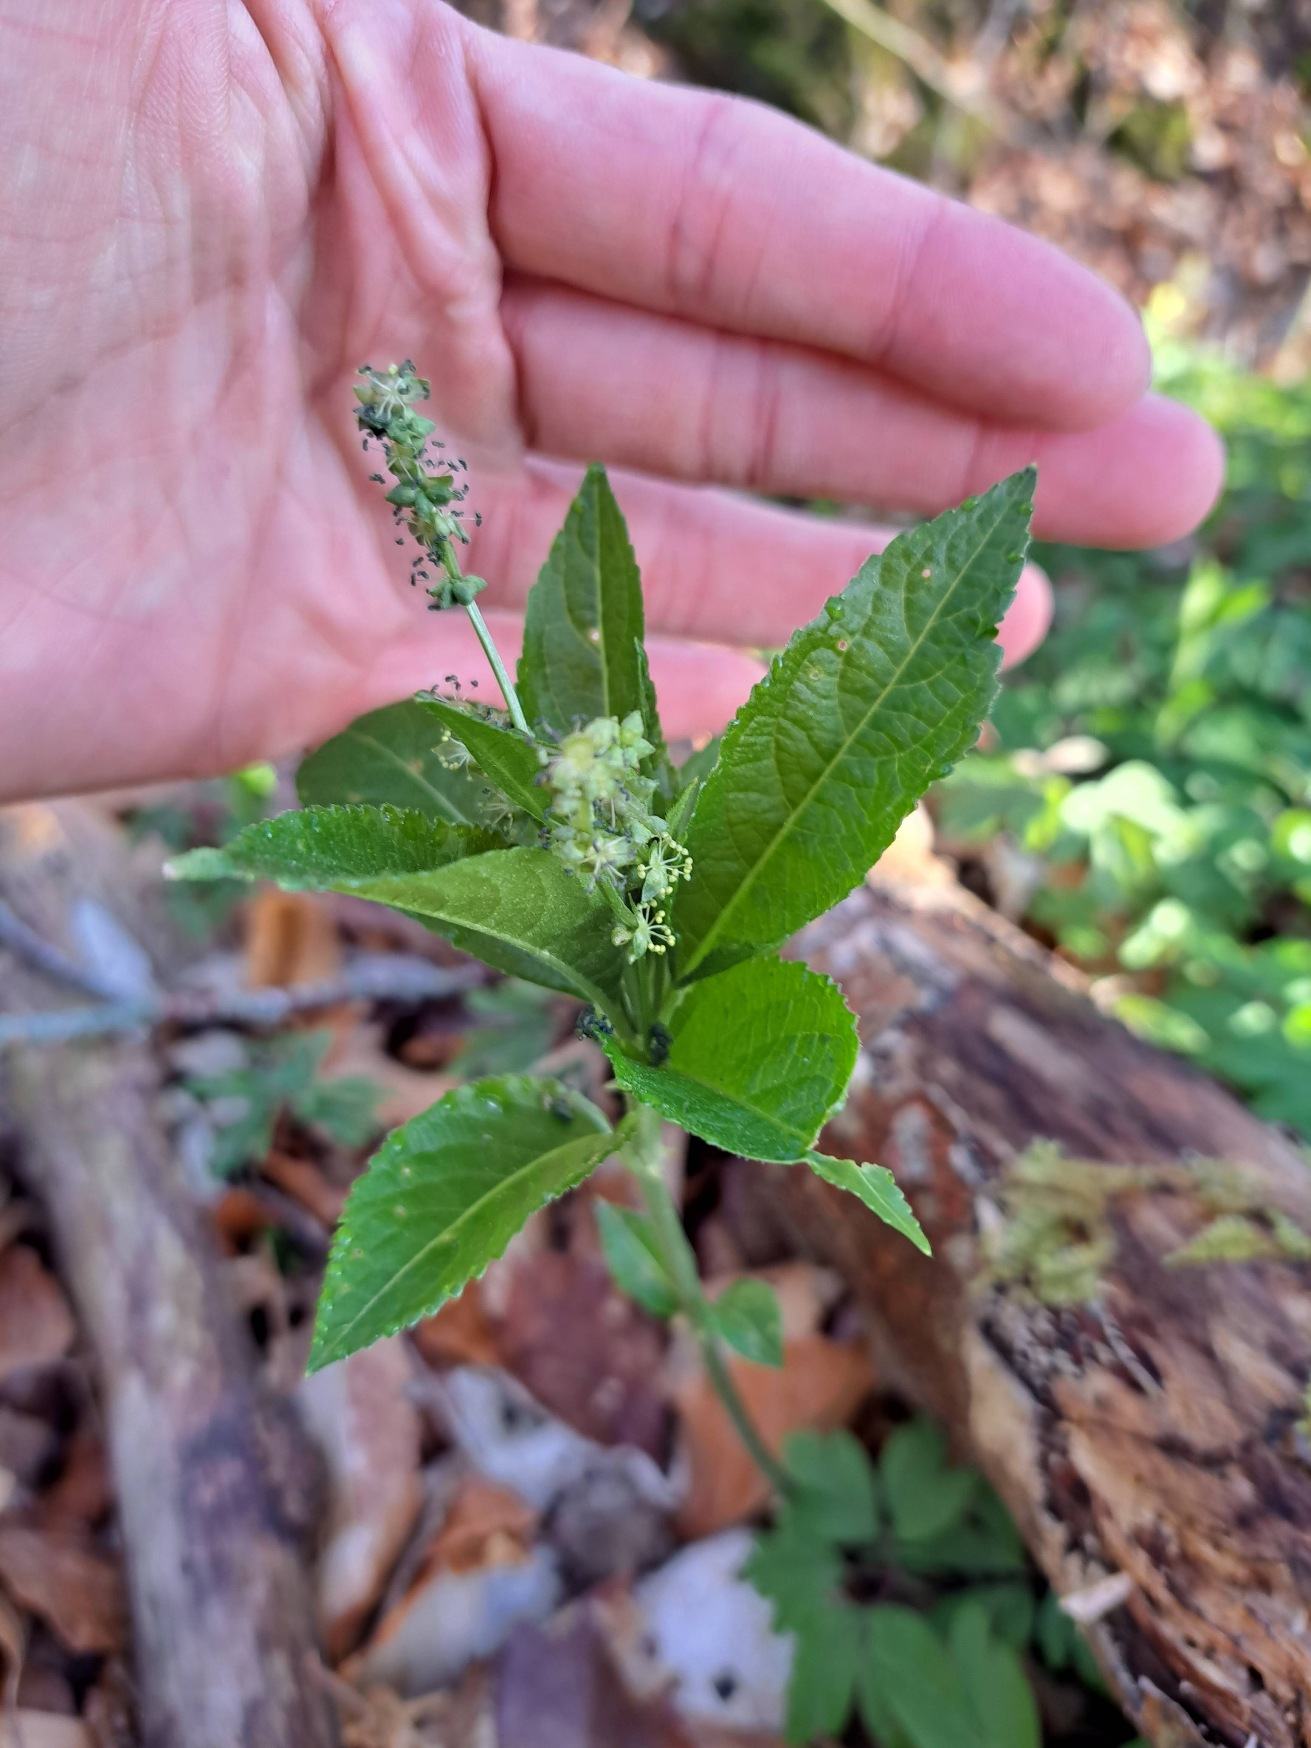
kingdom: Plantae
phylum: Tracheophyta
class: Magnoliopsida
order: Malpighiales
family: Euphorbiaceae
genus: Mercurialis
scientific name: Mercurialis perennis
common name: Almindelig bingelurt
